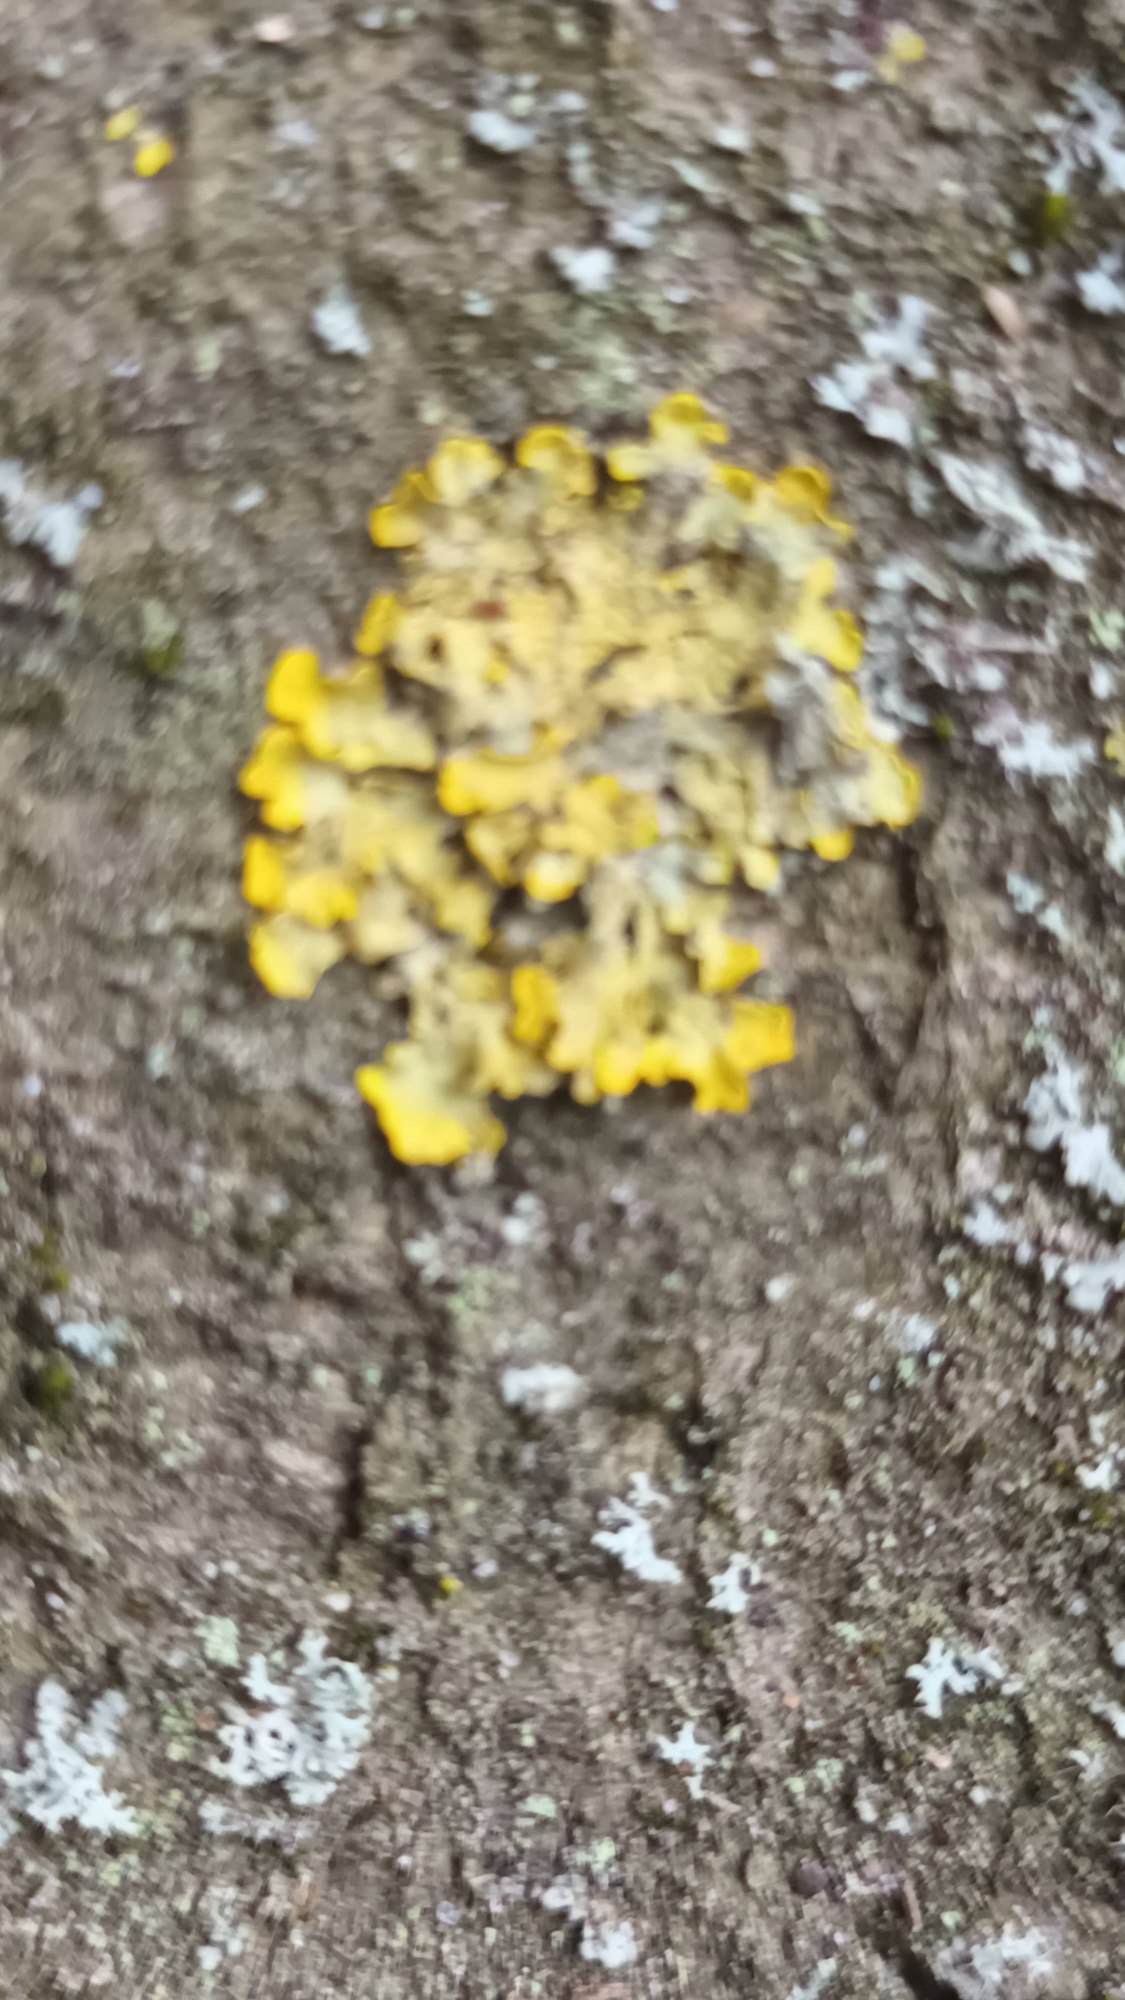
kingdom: Fungi
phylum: Ascomycota
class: Lecanoromycetes
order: Teloschistales
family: Teloschistaceae
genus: Xanthoria
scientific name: Xanthoria parietina
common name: Almindelig væggelav
